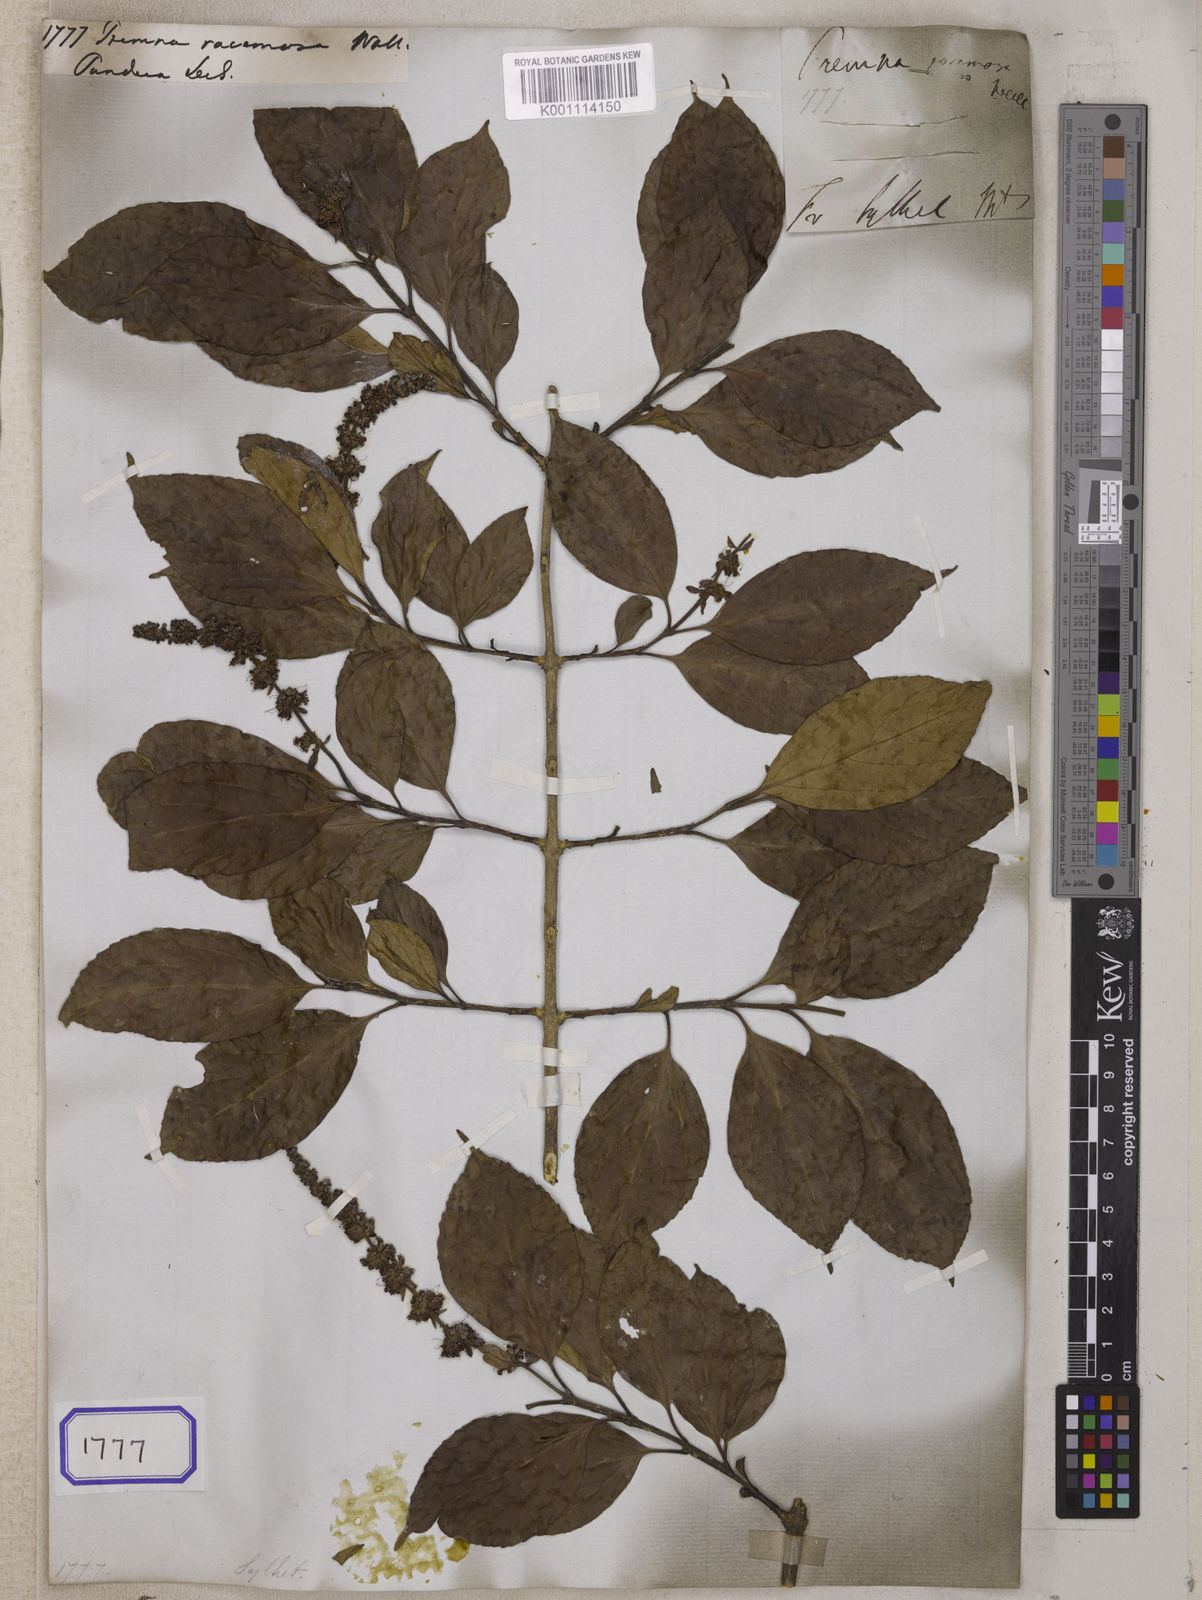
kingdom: Plantae
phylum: Tracheophyta
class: Magnoliopsida
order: Lamiales
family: Lamiaceae
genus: Premna
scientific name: Premna
